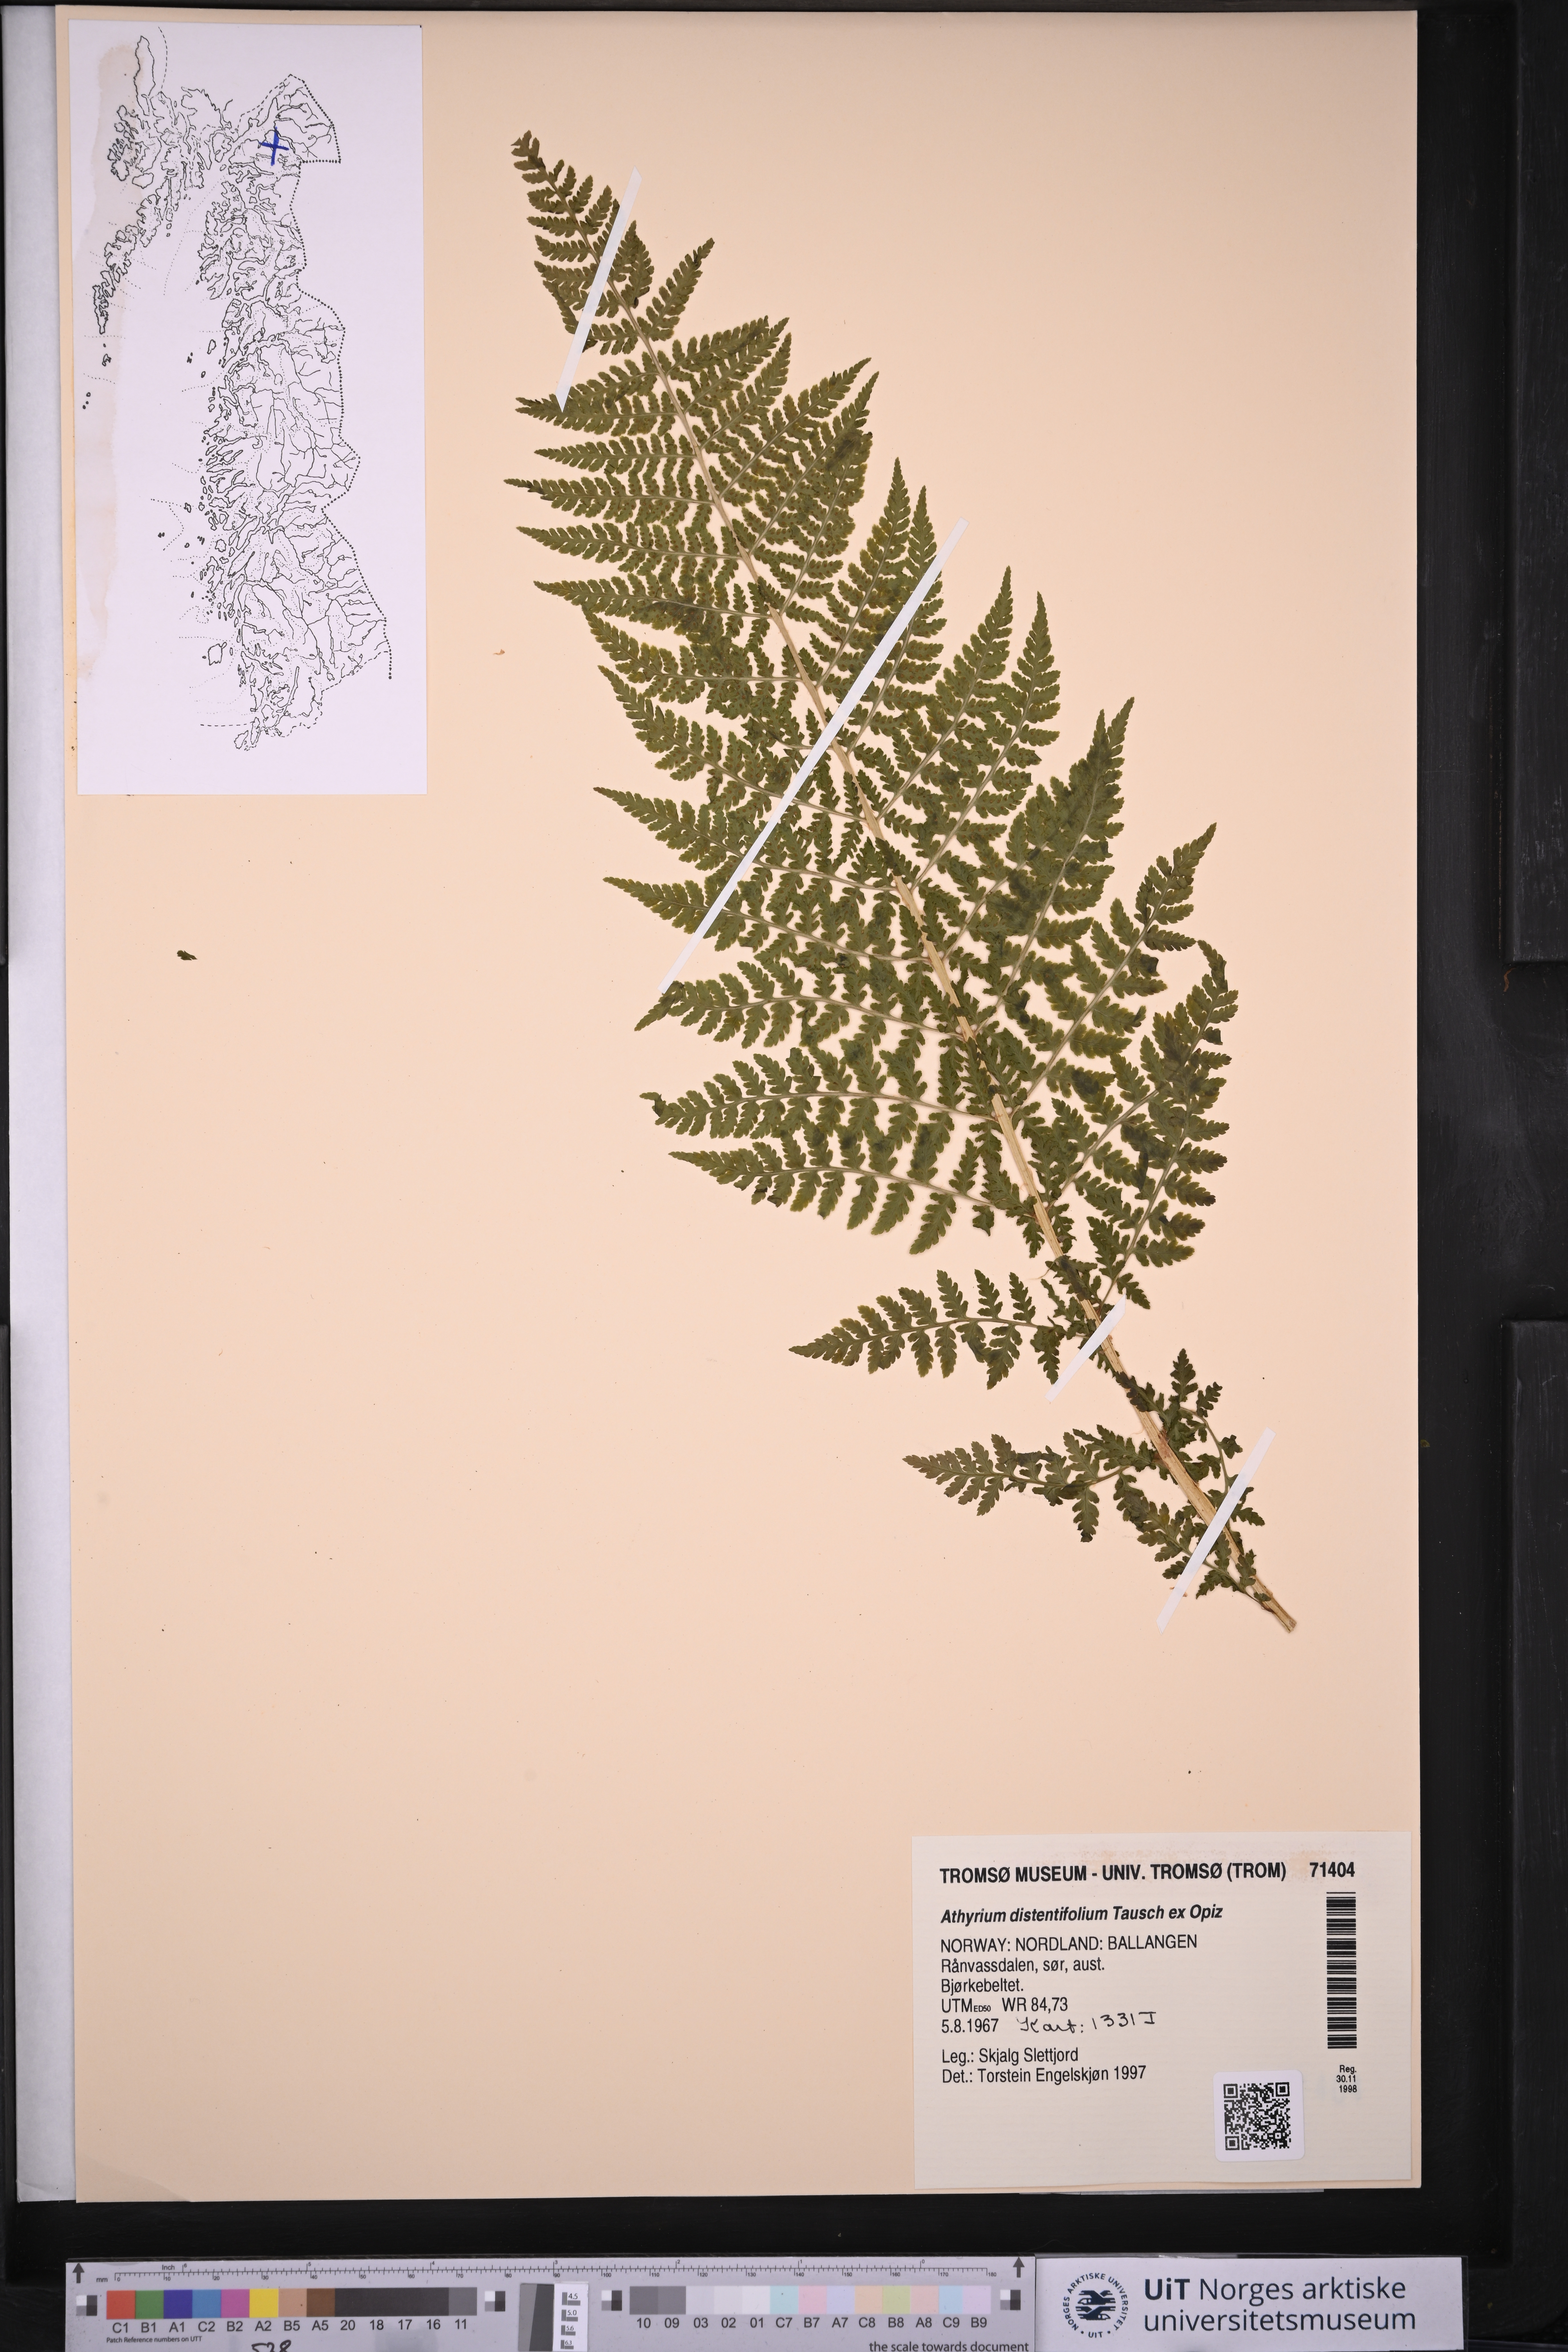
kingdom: Plantae
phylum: Tracheophyta
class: Polypodiopsida
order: Polypodiales
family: Athyriaceae
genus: Pseudathyrium
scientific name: Pseudathyrium alpestre
